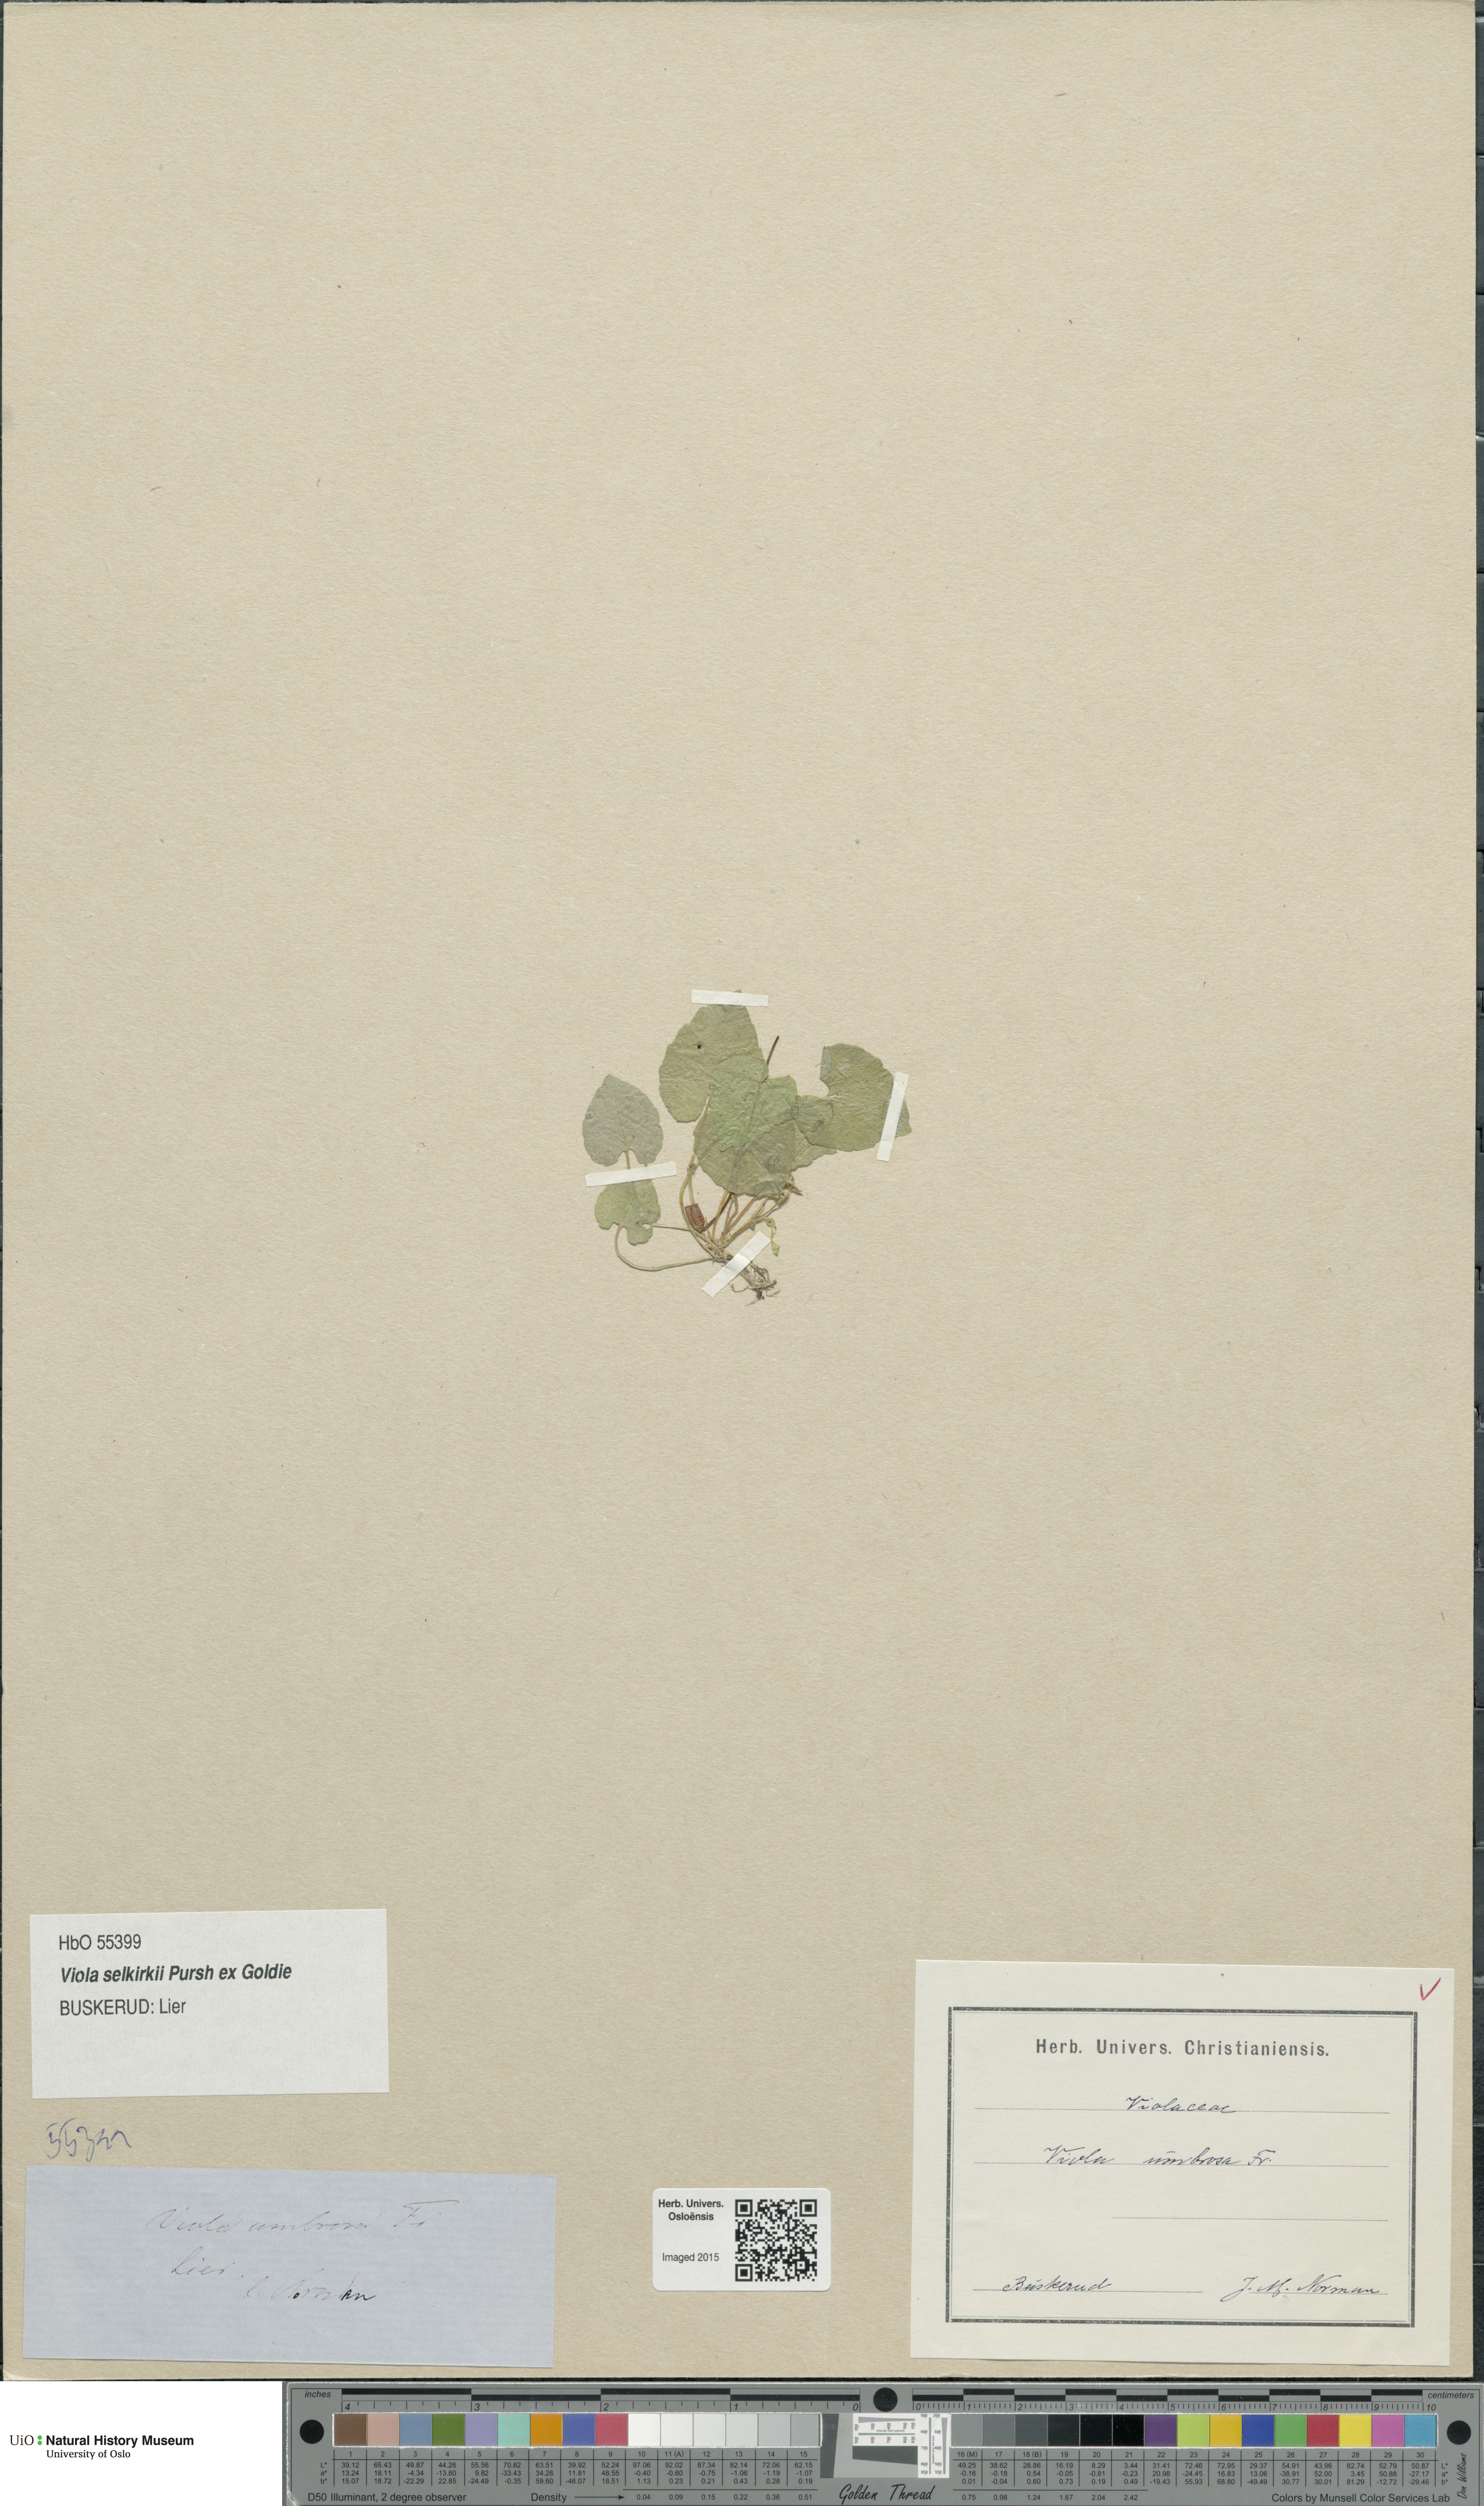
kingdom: Plantae
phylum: Tracheophyta
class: Magnoliopsida
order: Malpighiales
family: Violaceae
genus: Viola
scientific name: Viola selkirkii
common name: Selkirk's violet
